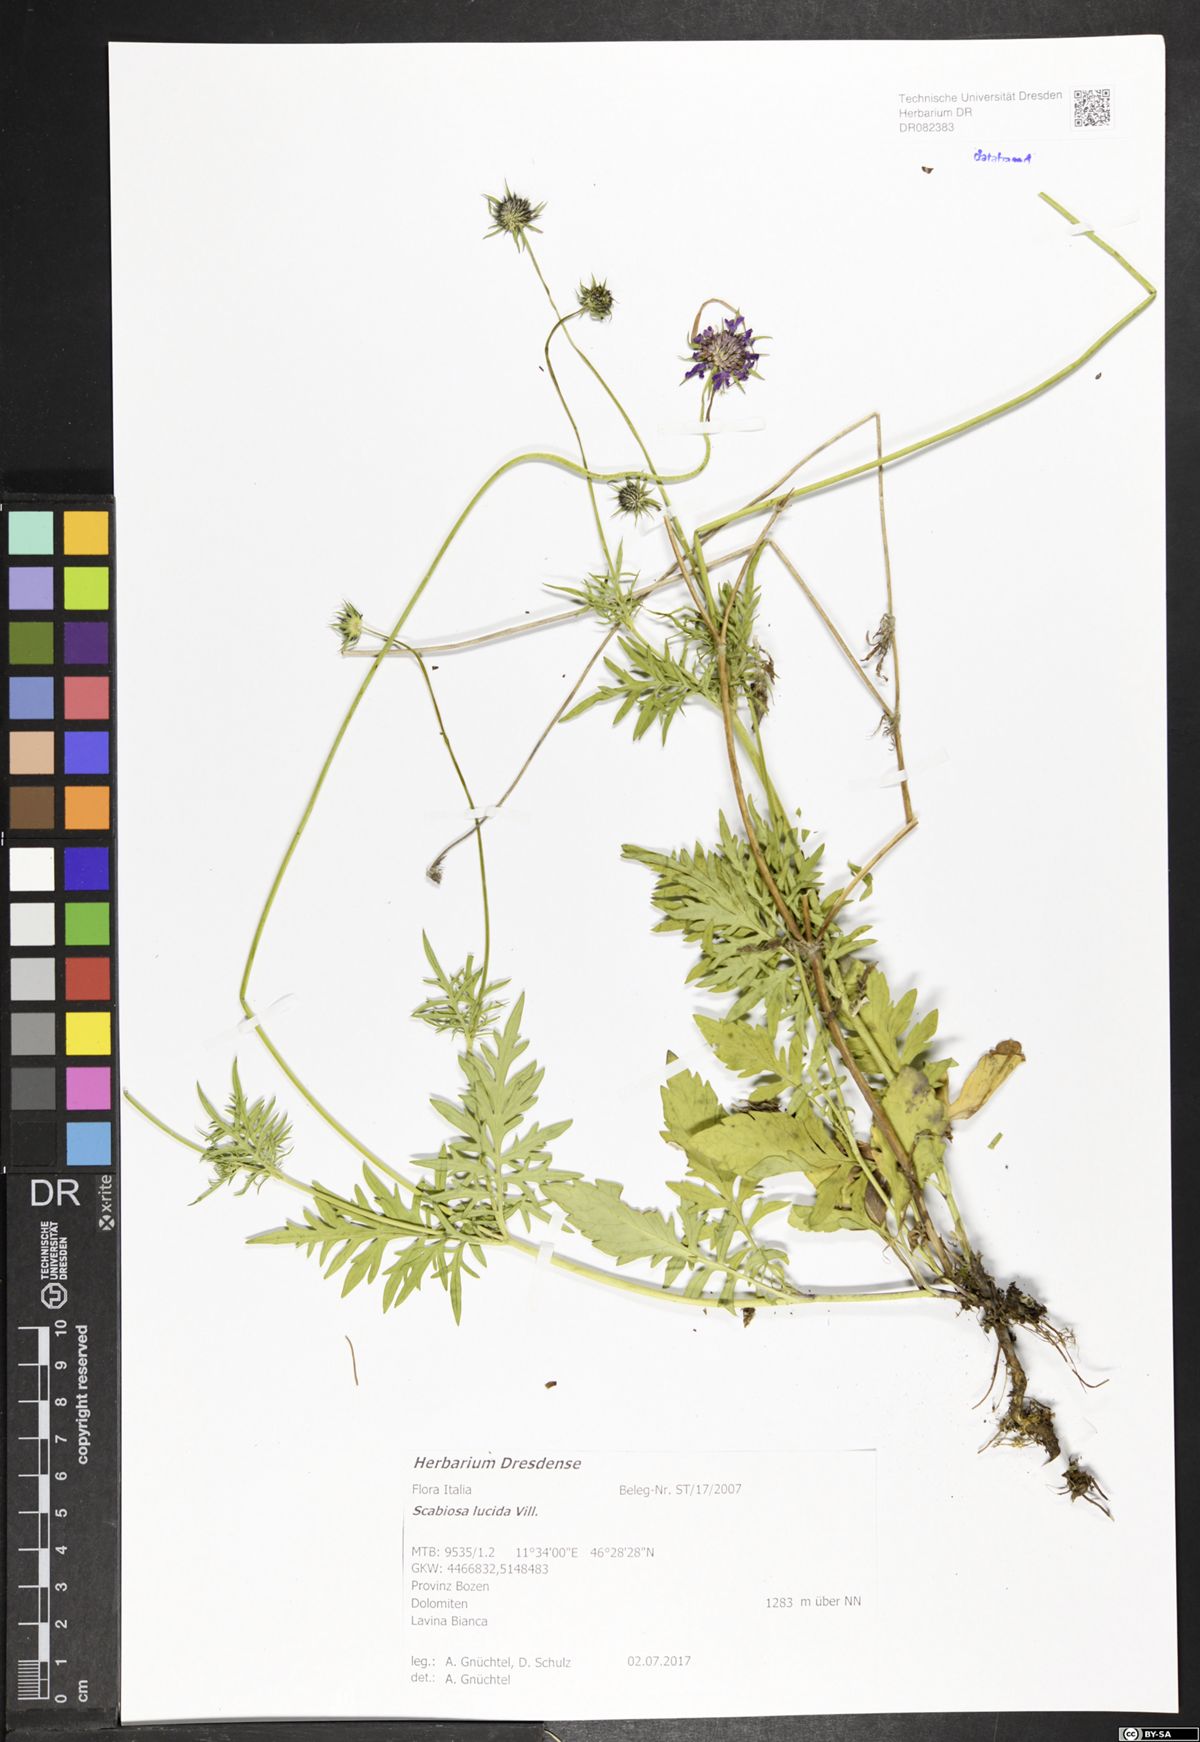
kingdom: Plantae
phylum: Tracheophyta
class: Magnoliopsida
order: Dipsacales
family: Caprifoliaceae
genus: Scabiosa
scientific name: Scabiosa lucida
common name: Shining scabious
